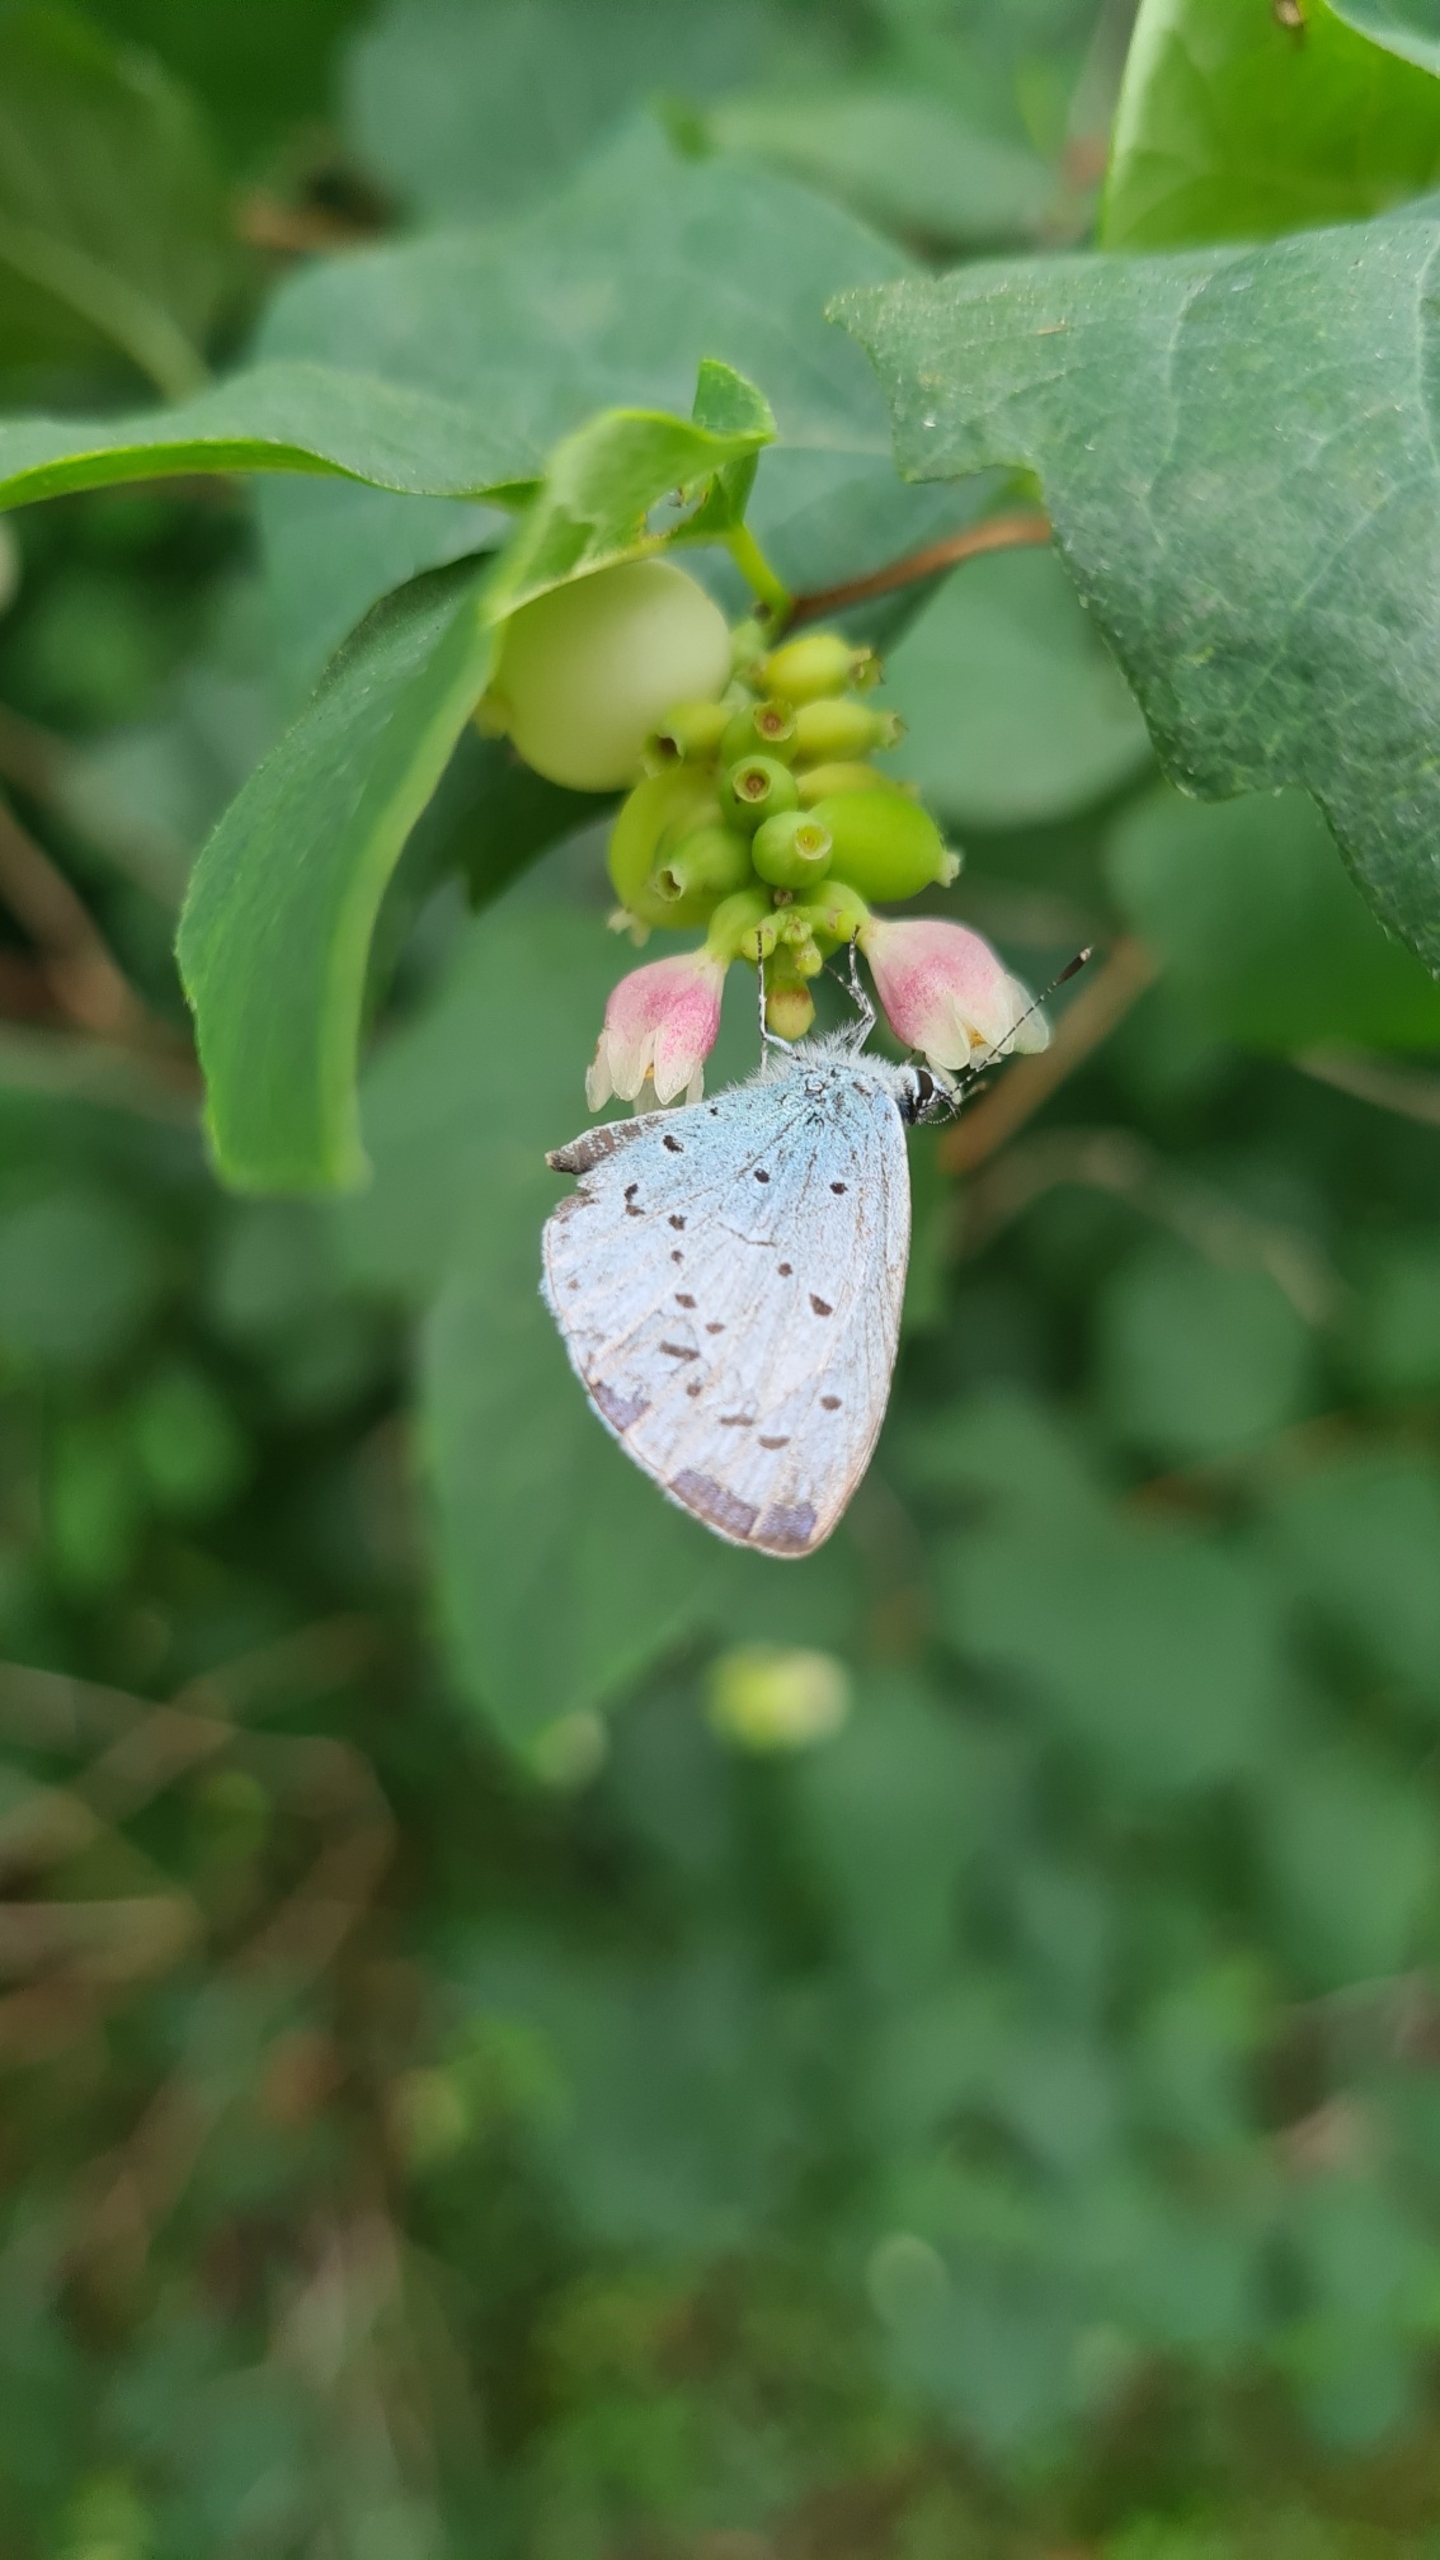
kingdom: Animalia
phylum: Arthropoda
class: Insecta
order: Lepidoptera
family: Lycaenidae
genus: Celastrina
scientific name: Celastrina argiolus
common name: Skovblåfugl
